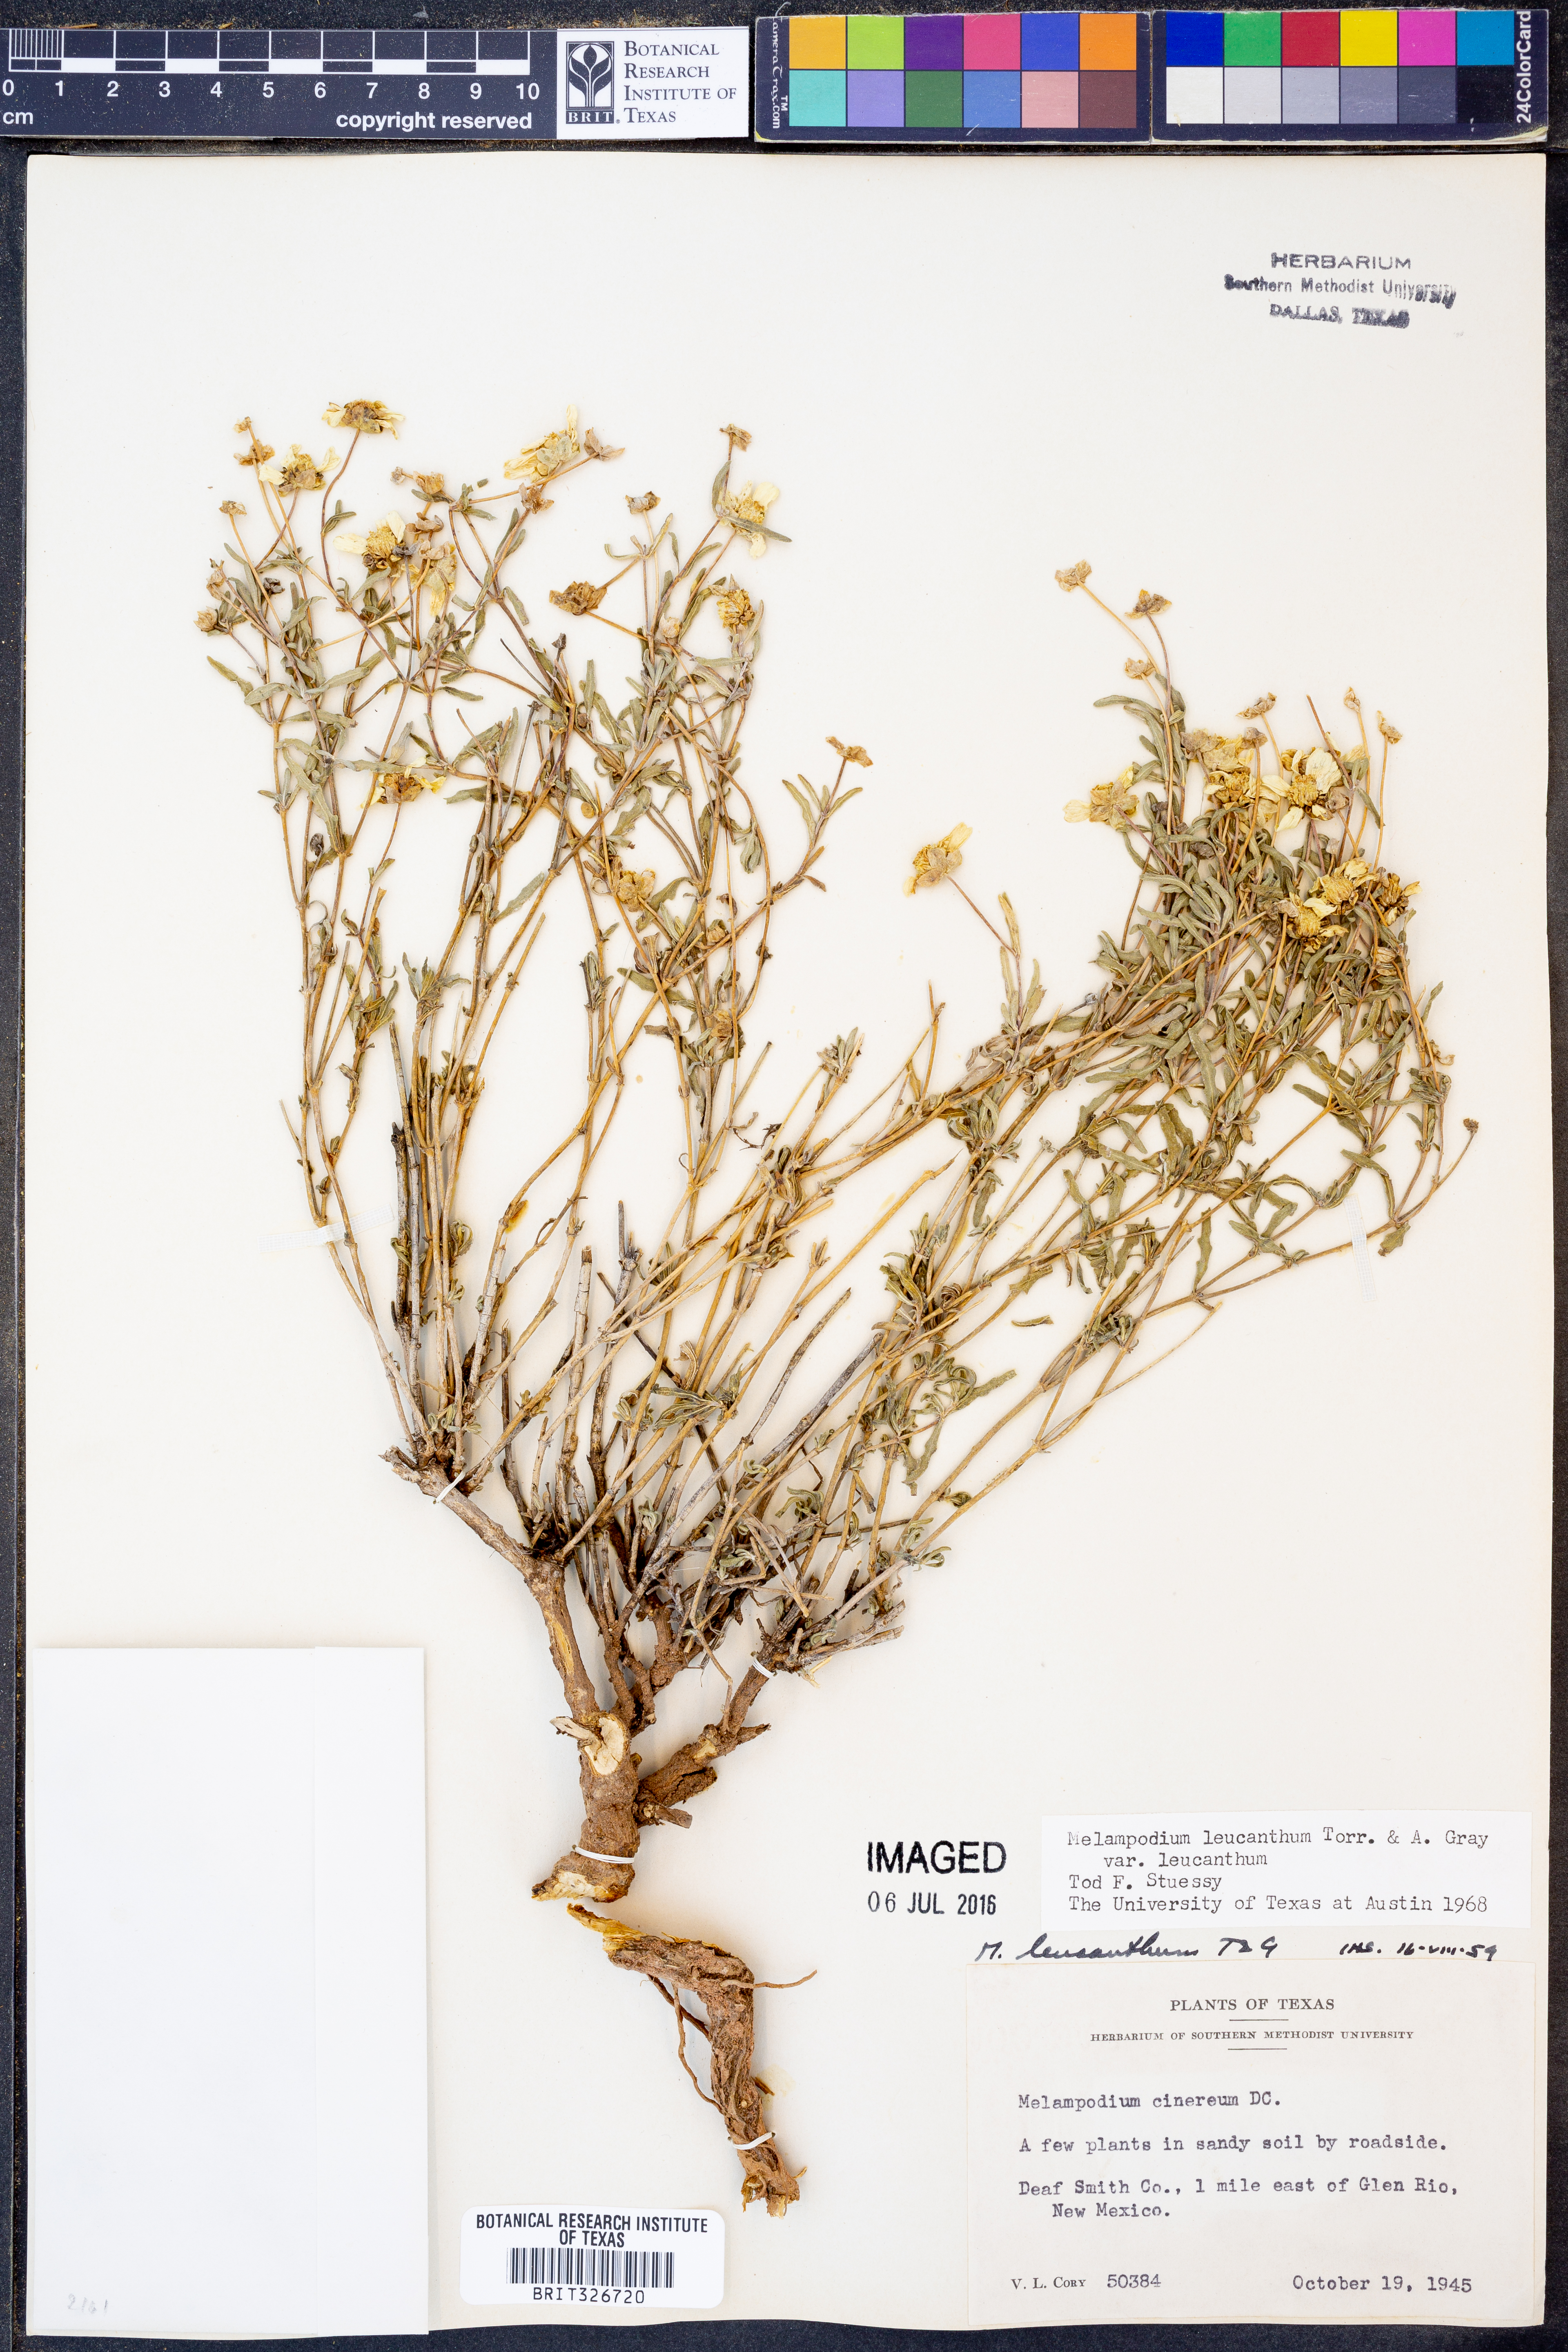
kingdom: Plantae
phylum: Tracheophyta
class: Magnoliopsida
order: Asterales
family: Asteraceae
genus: Melampodium
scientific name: Melampodium leucanthum
